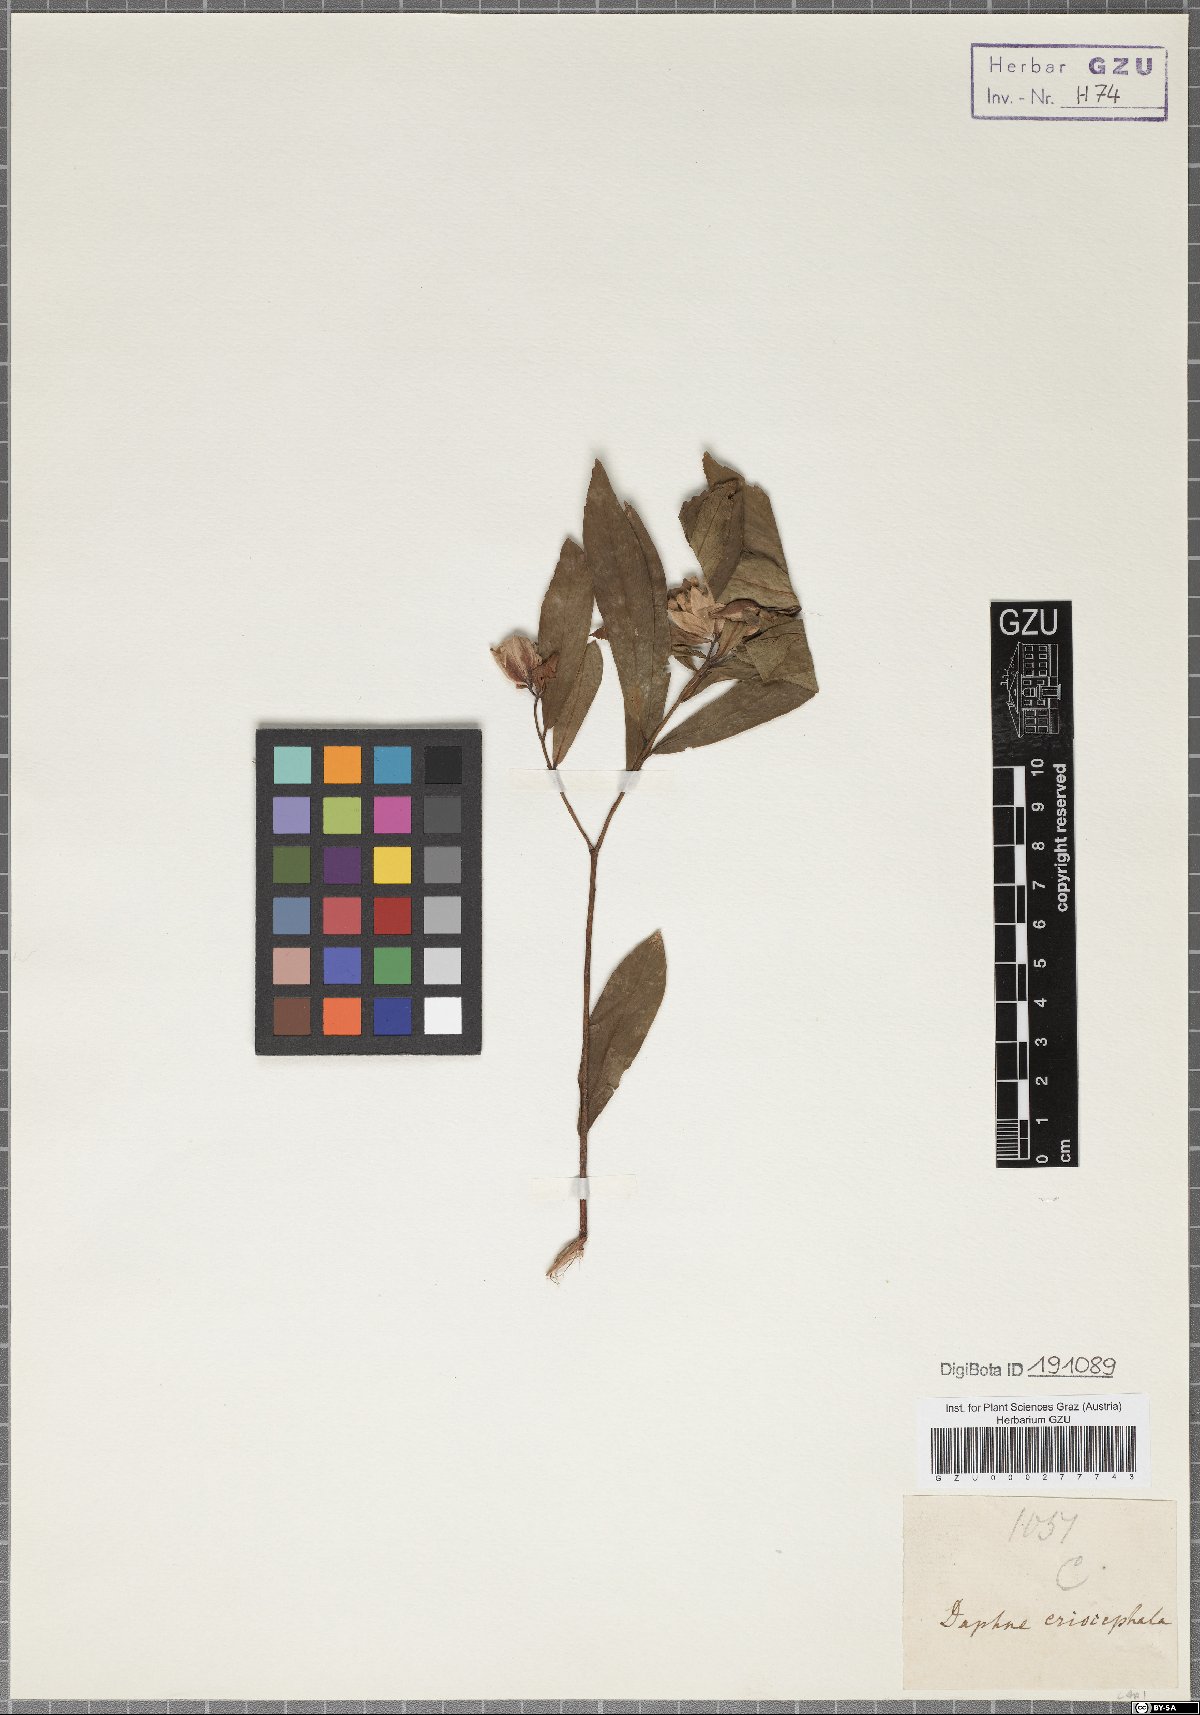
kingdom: Plantae
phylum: Tracheophyta
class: Magnoliopsida
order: Malvales
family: Thymelaeaceae
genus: Gnidia
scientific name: Gnidia glauca
